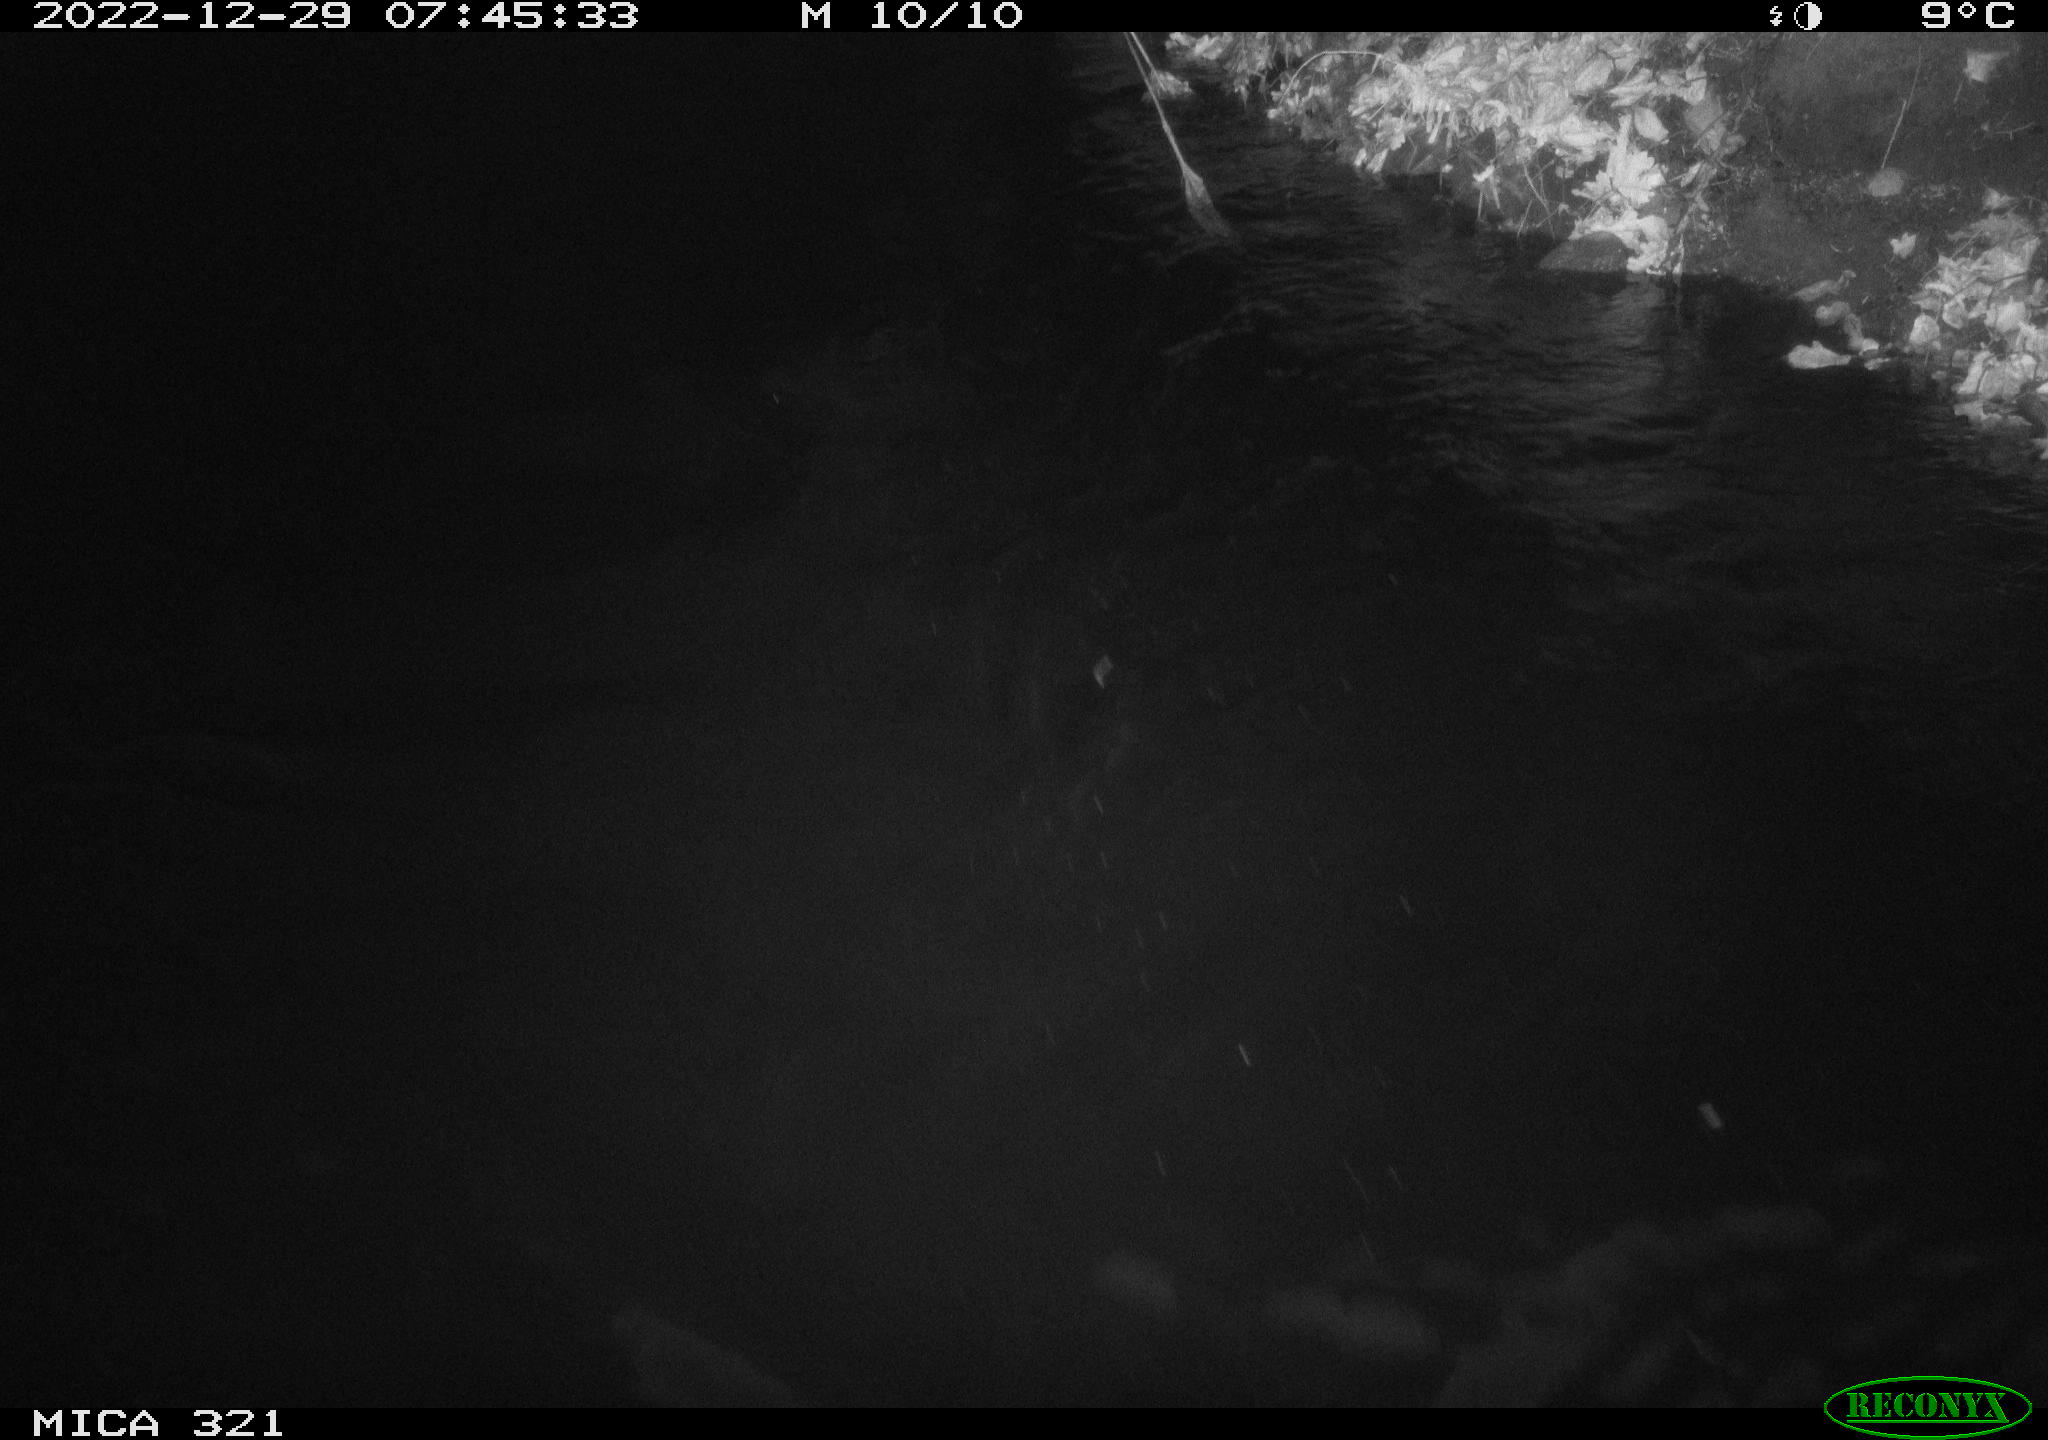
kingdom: Animalia
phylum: Chordata
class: Aves
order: Anseriformes
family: Anatidae
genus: Anas
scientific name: Anas
